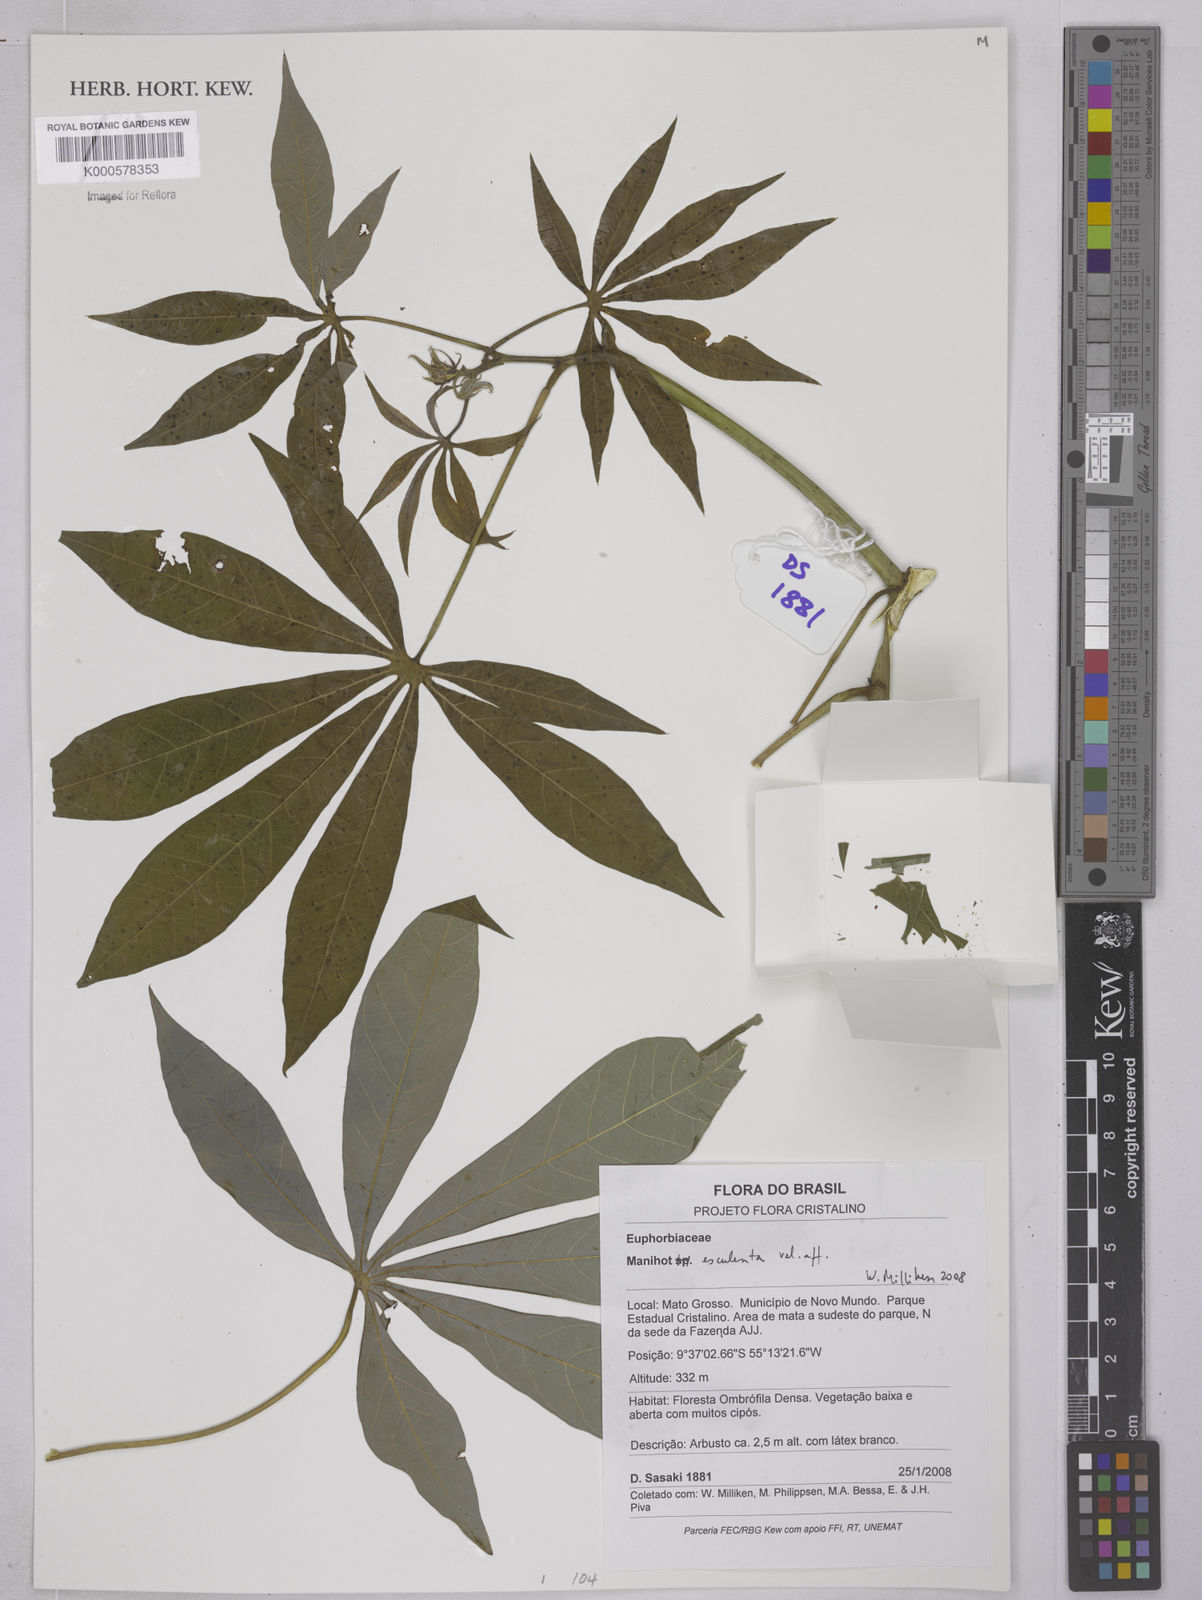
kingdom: Plantae
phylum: Tracheophyta
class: Magnoliopsida
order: Malpighiales
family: Euphorbiaceae
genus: Manihot
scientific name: Manihot esculenta
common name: Cassava
